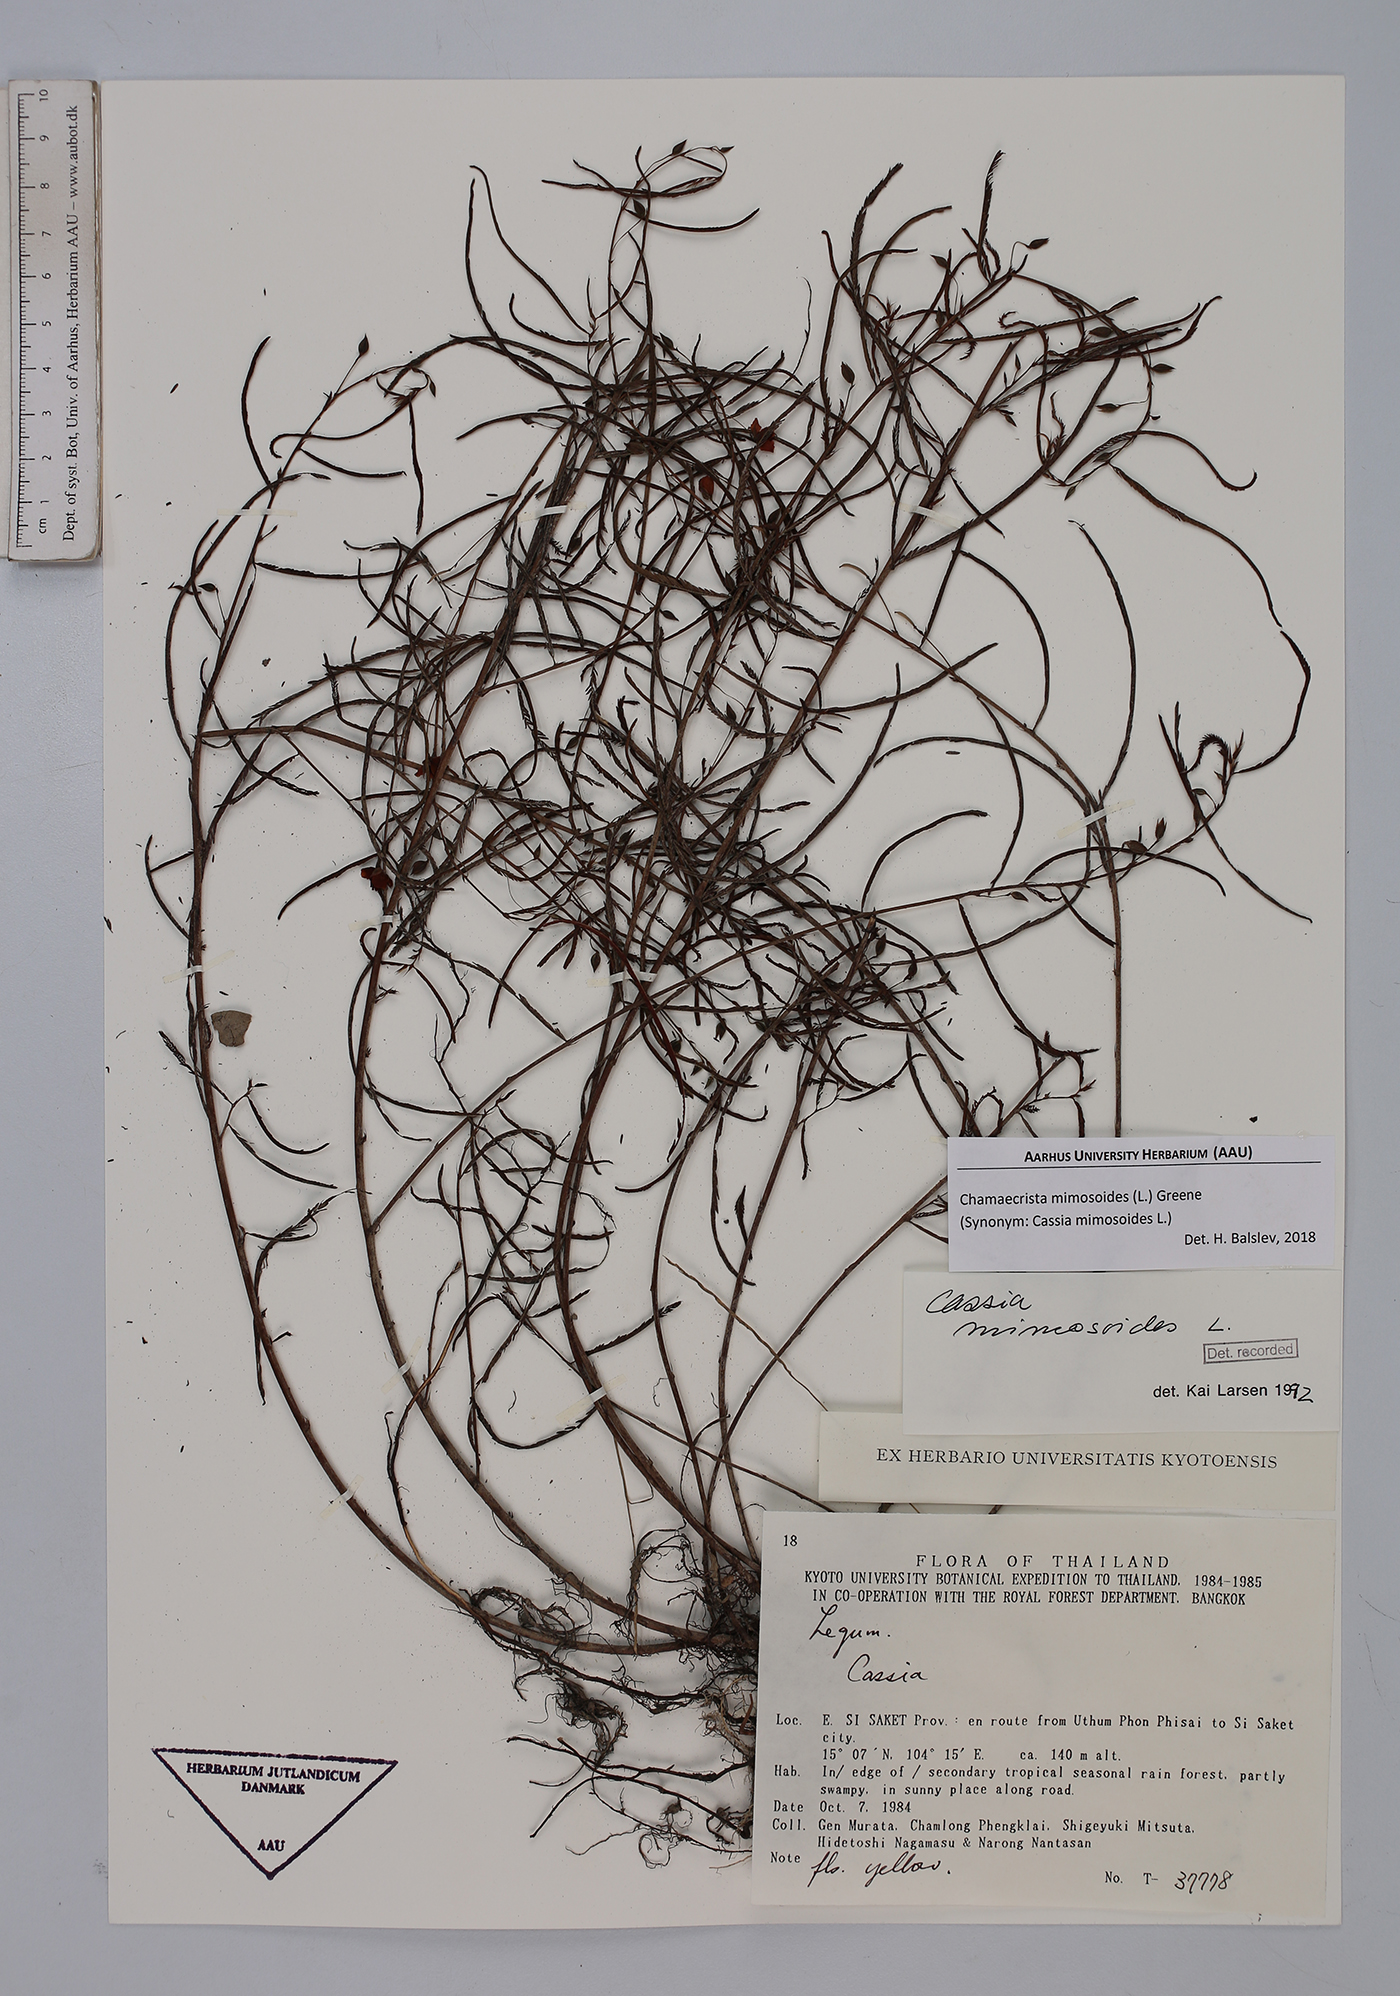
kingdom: Plantae
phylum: Tracheophyta
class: Magnoliopsida
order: Fabales
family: Fabaceae
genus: Chamaecrista
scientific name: Chamaecrista mimosoides
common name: Fish-bone cassia
